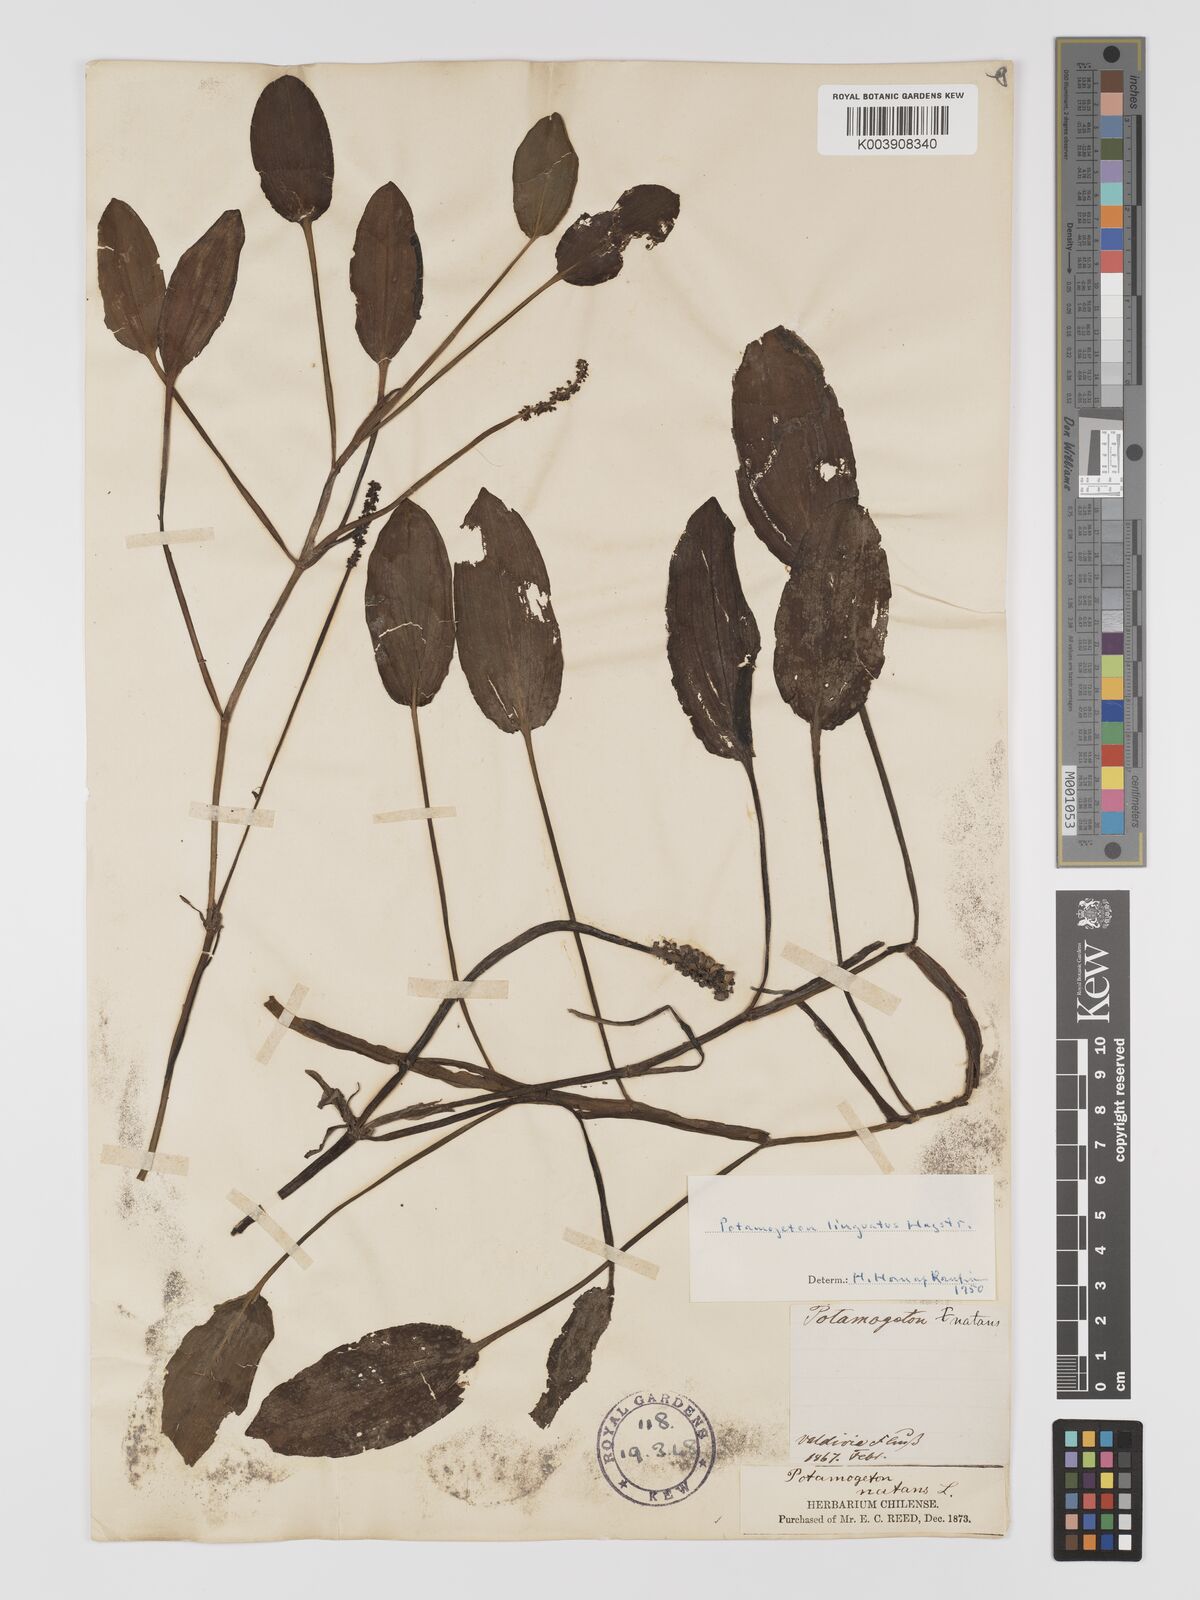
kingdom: Plantae
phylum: Tracheophyta
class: Liliopsida
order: Alismatales
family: Potamogetonaceae
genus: Potamogeton
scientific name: Potamogeton linguatus
